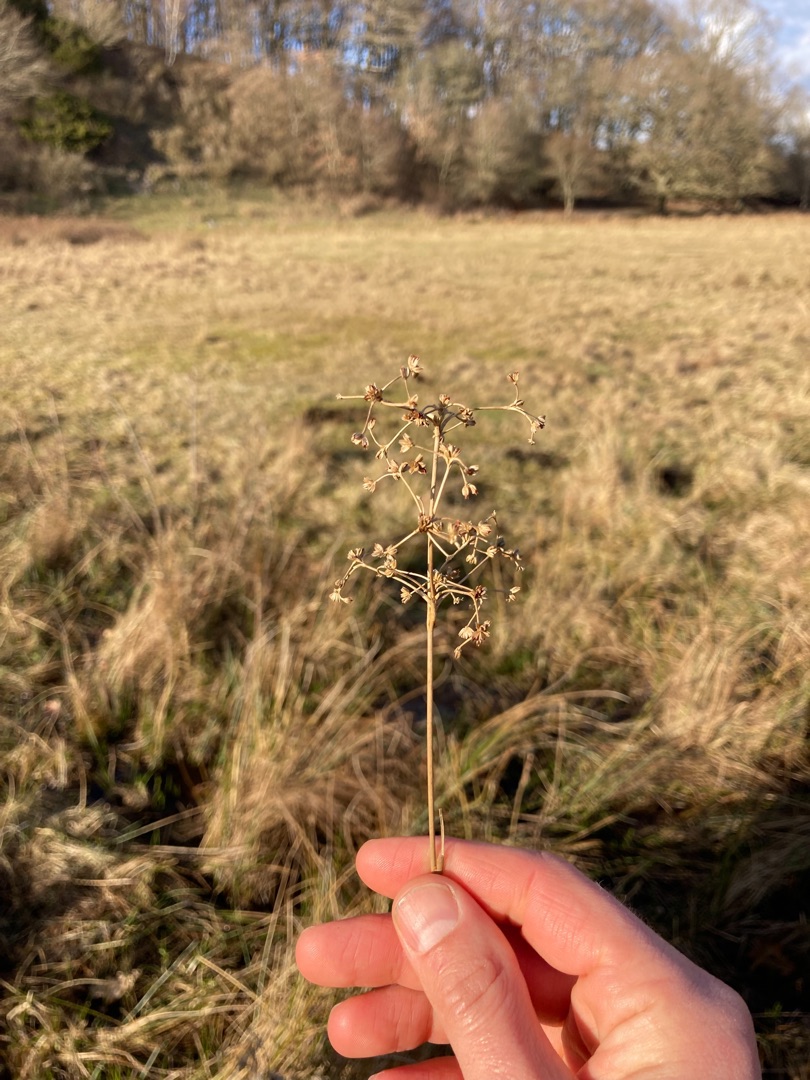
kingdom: Plantae
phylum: Tracheophyta
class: Liliopsida
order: Poales
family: Juncaceae
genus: Juncus
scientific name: Juncus subnodulosus
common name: Butblomstret siv
